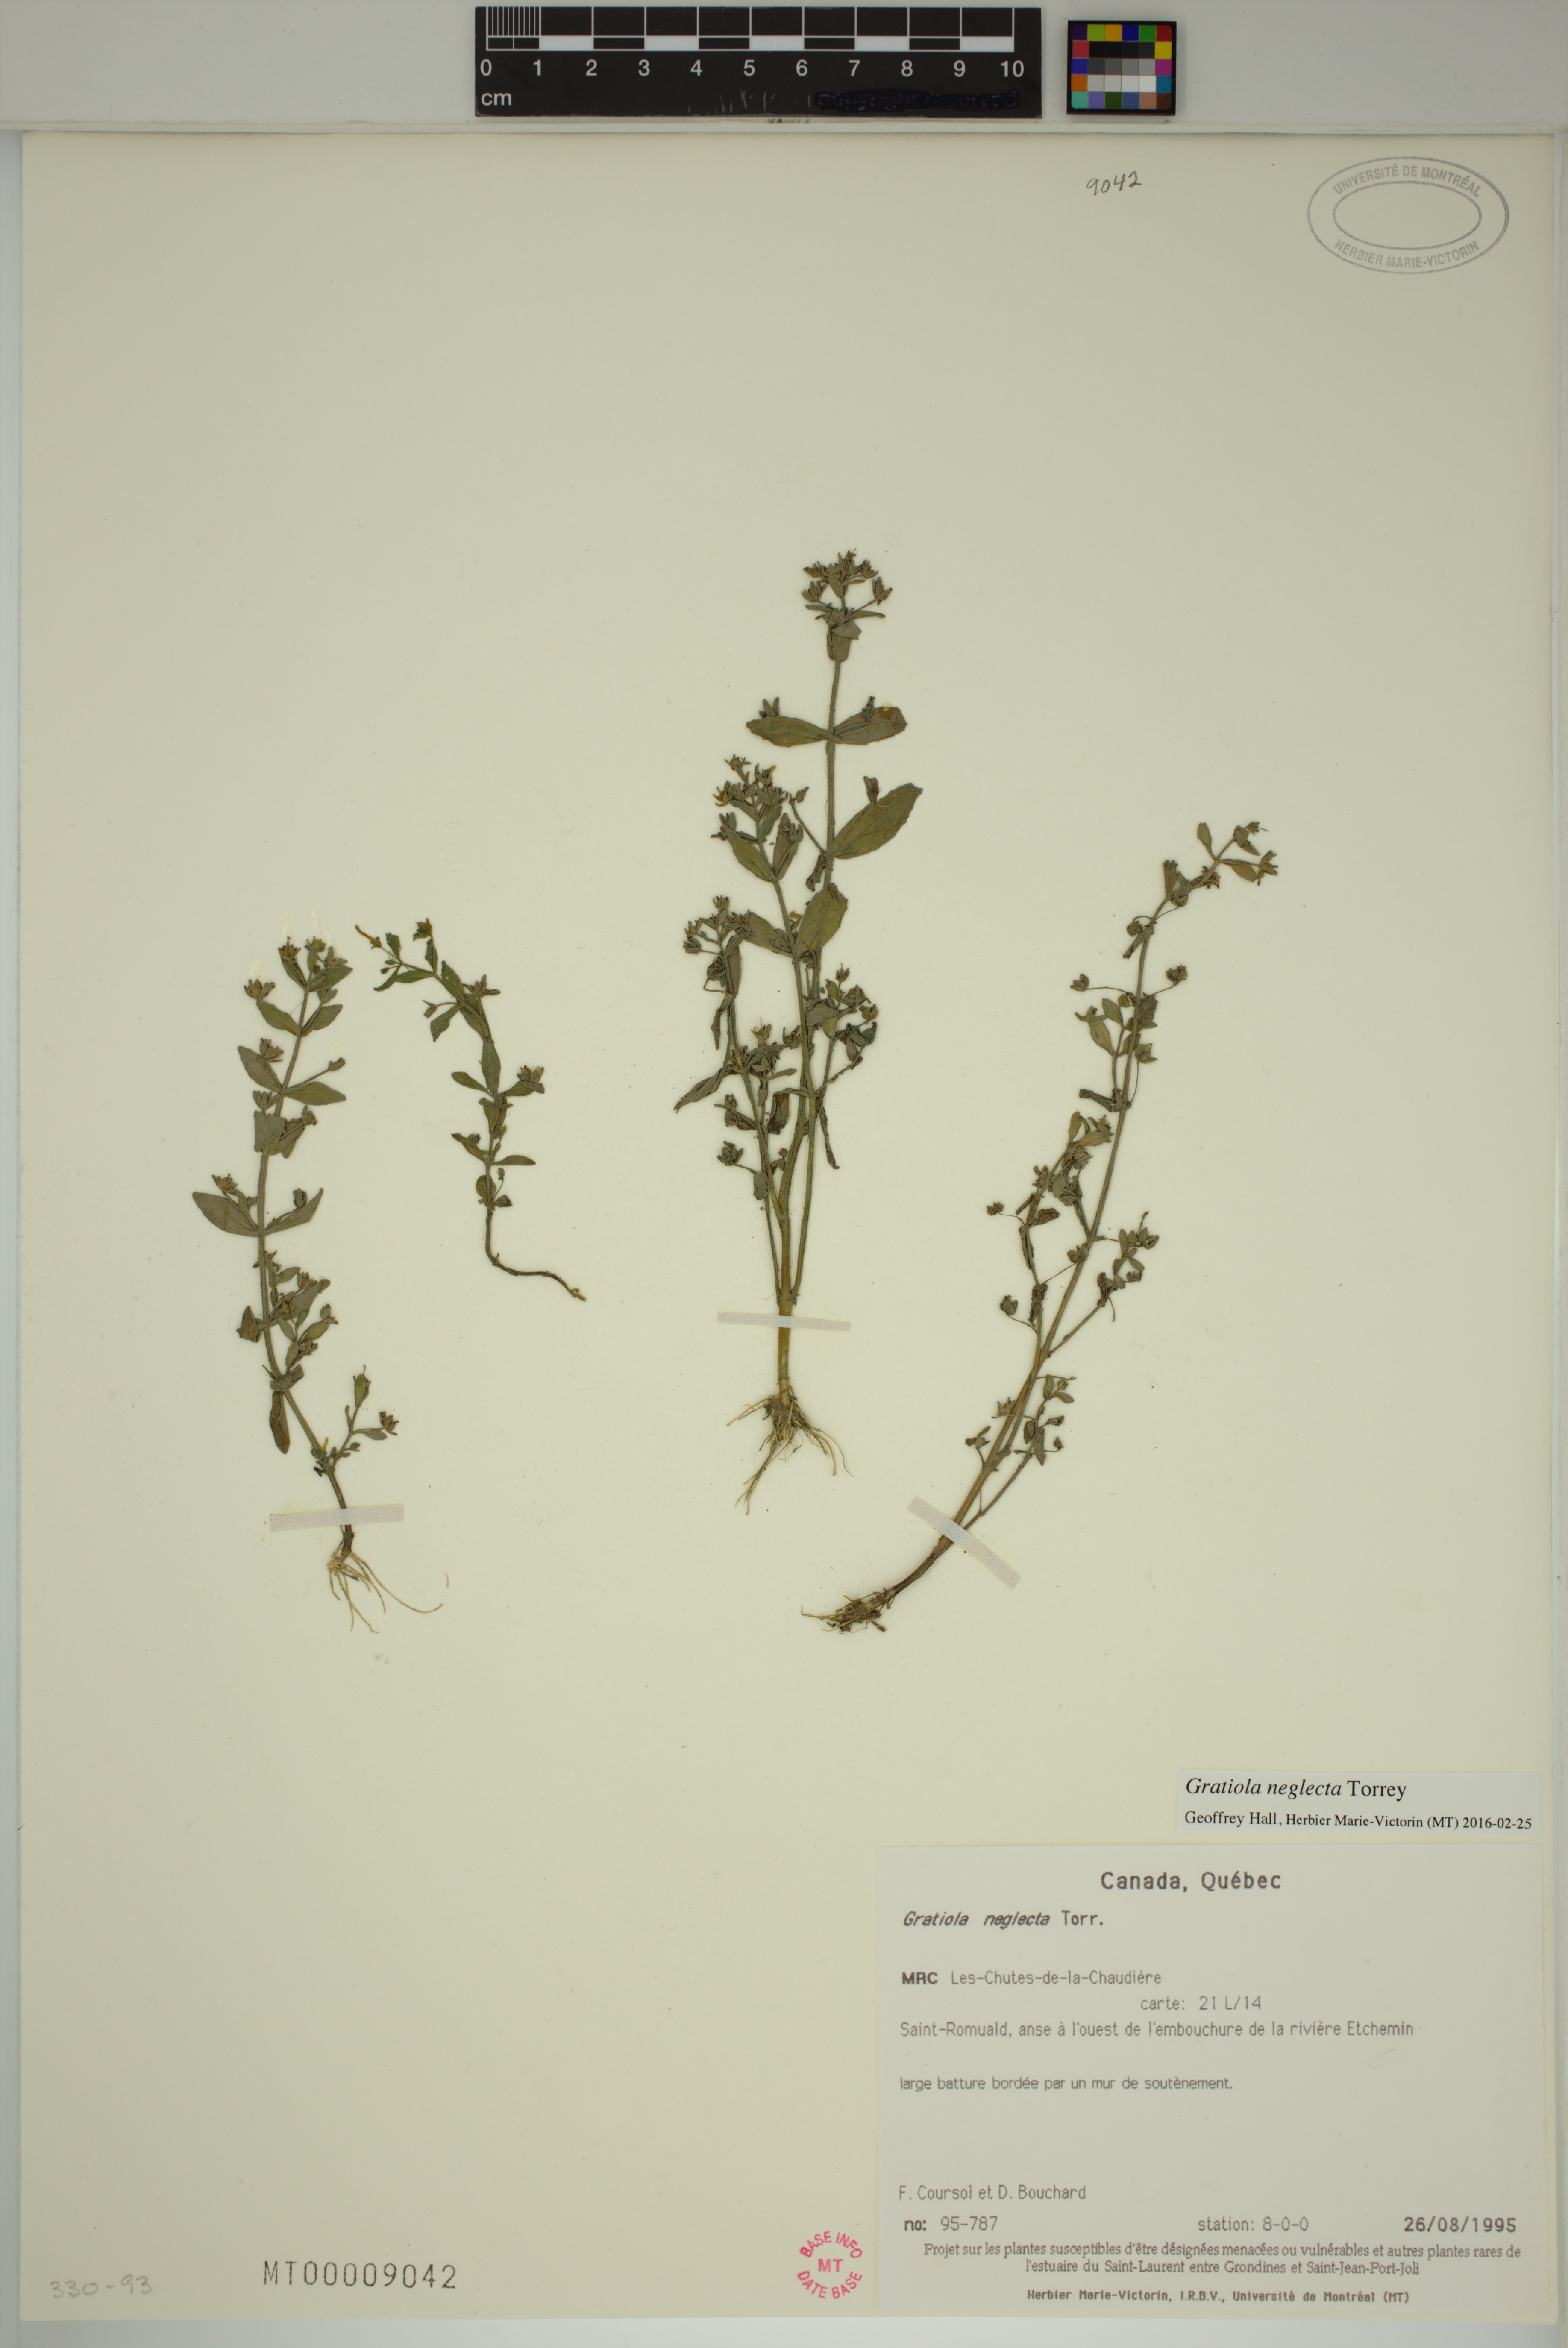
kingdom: Plantae
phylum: Tracheophyta
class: Magnoliopsida
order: Lamiales
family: Plantaginaceae
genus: Gratiola
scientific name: Gratiola neglecta
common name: American hedge-hyssop
